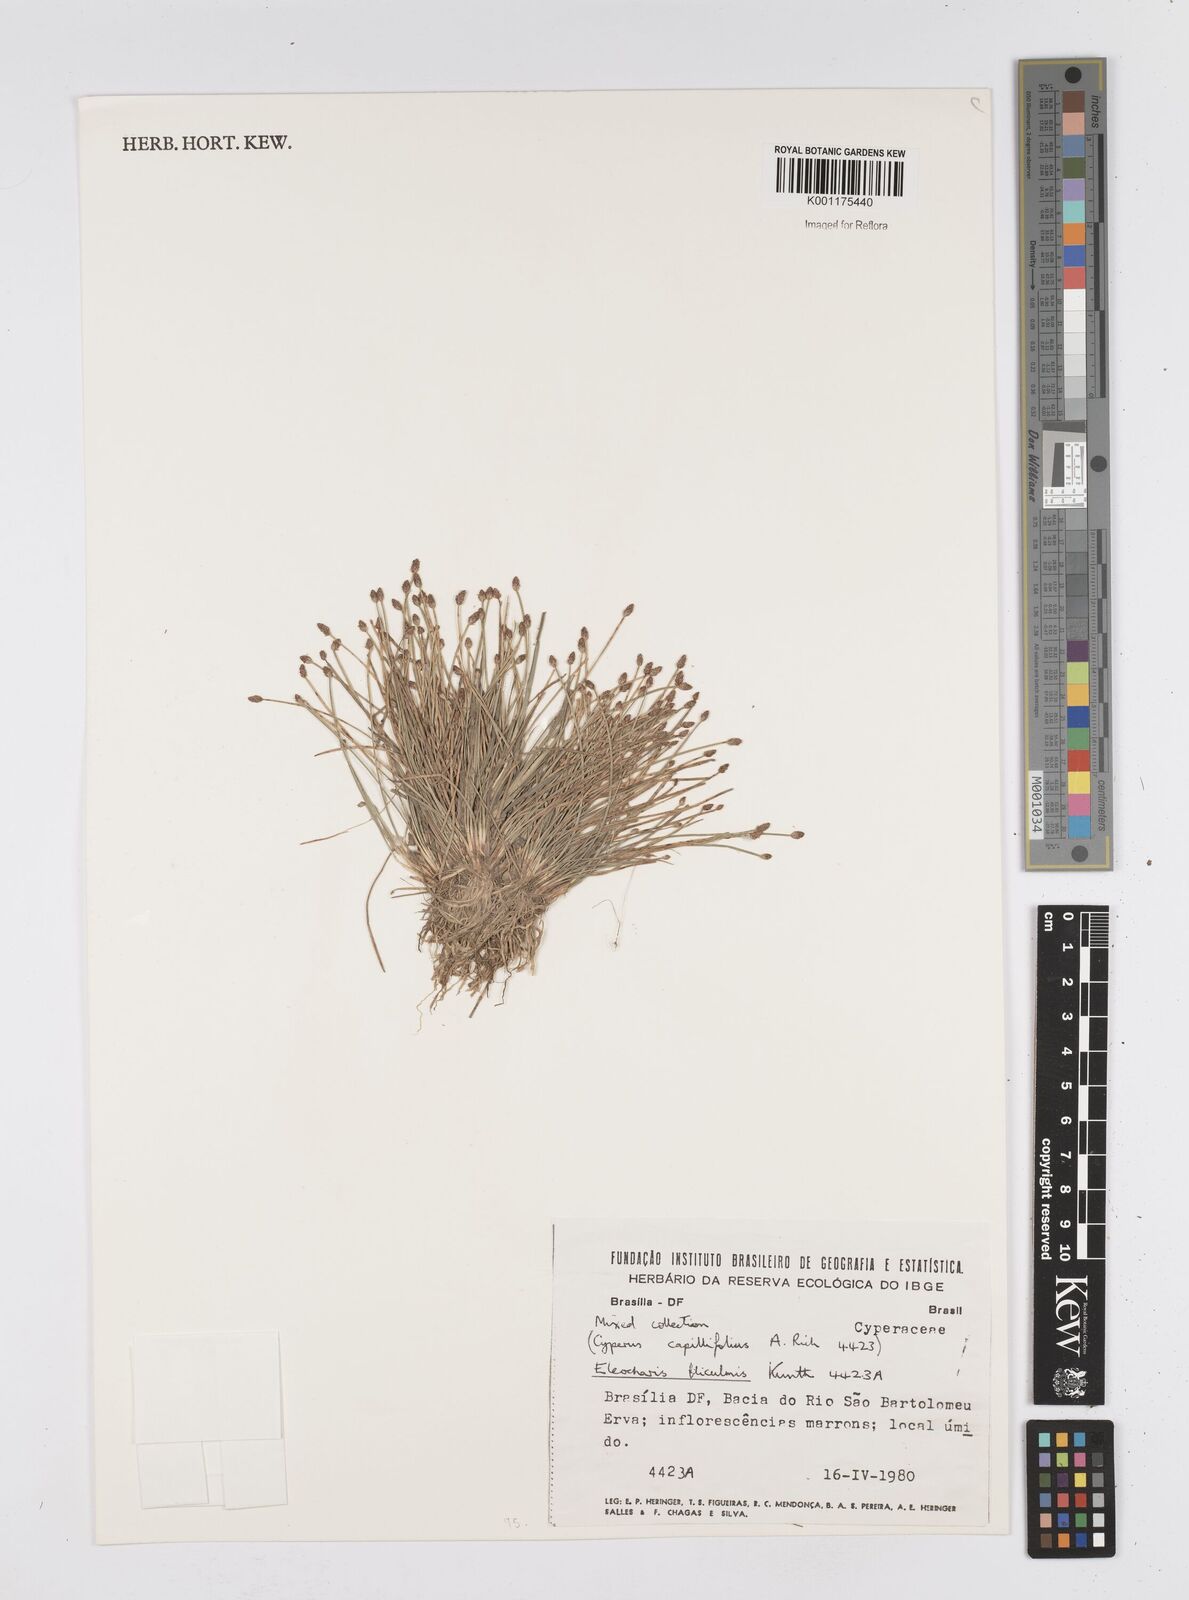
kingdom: Plantae
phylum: Tracheophyta
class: Liliopsida
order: Poales
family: Cyperaceae
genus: Eleocharis
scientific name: Eleocharis filiculmis
